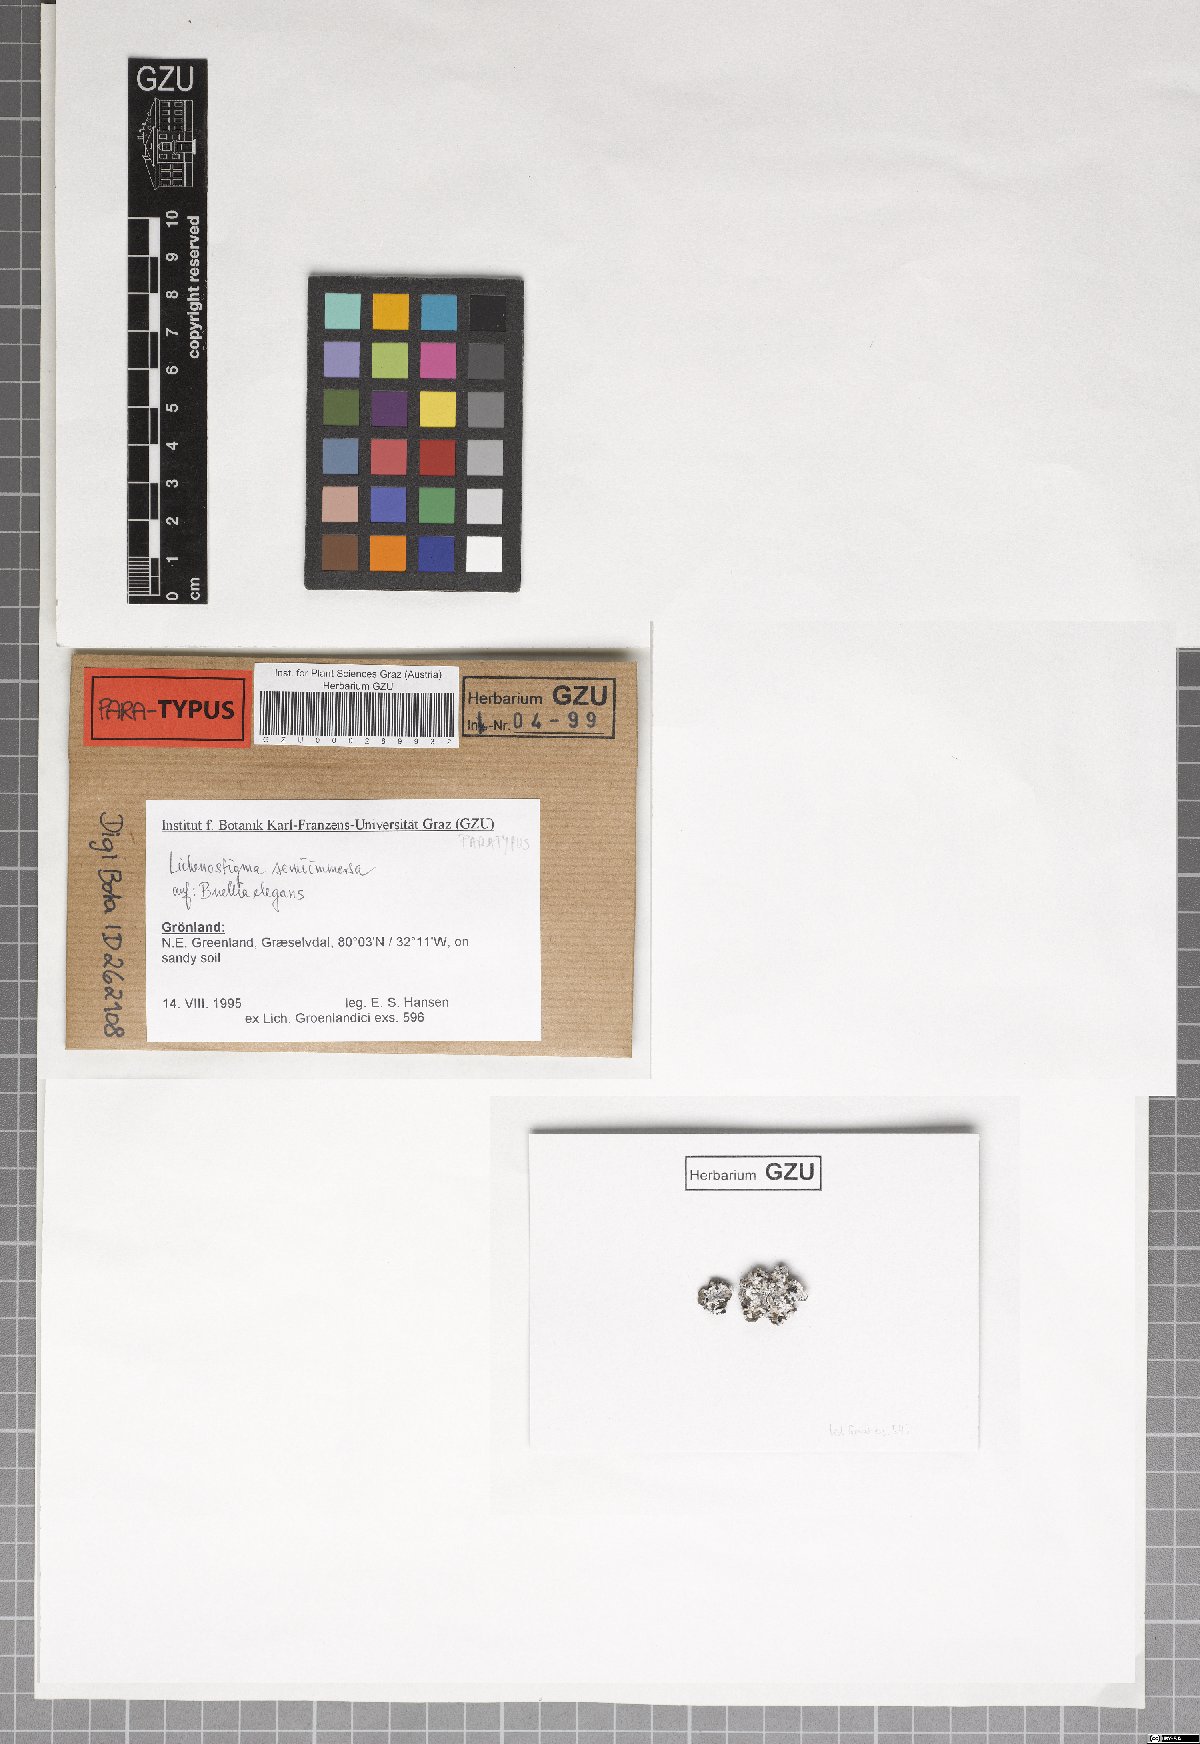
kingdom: Fungi
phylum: Ascomycota
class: Dothideomycetes
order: Lichenotheliales
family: Lichenotheliaceae
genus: Lichenostigma
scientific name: Lichenostigma semi-immersum
